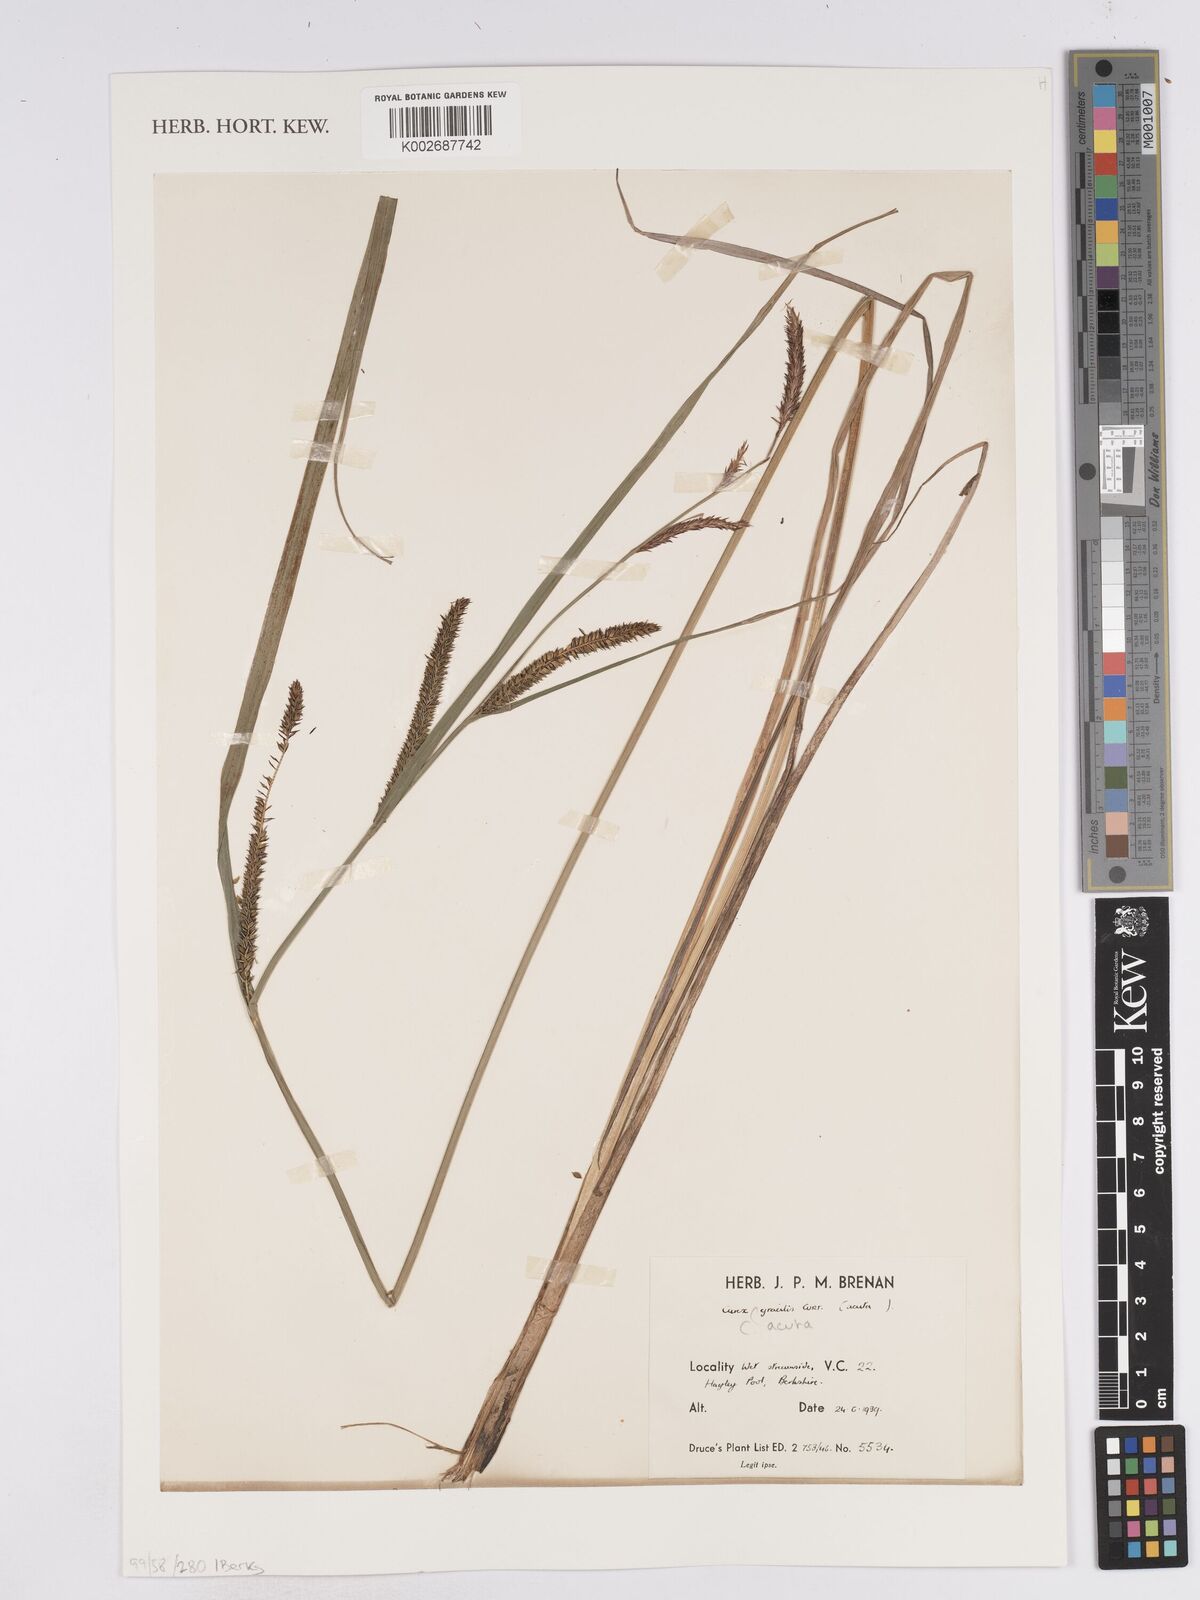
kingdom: Plantae
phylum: Tracheophyta
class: Liliopsida
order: Poales
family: Cyperaceae
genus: Carex
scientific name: Carex
